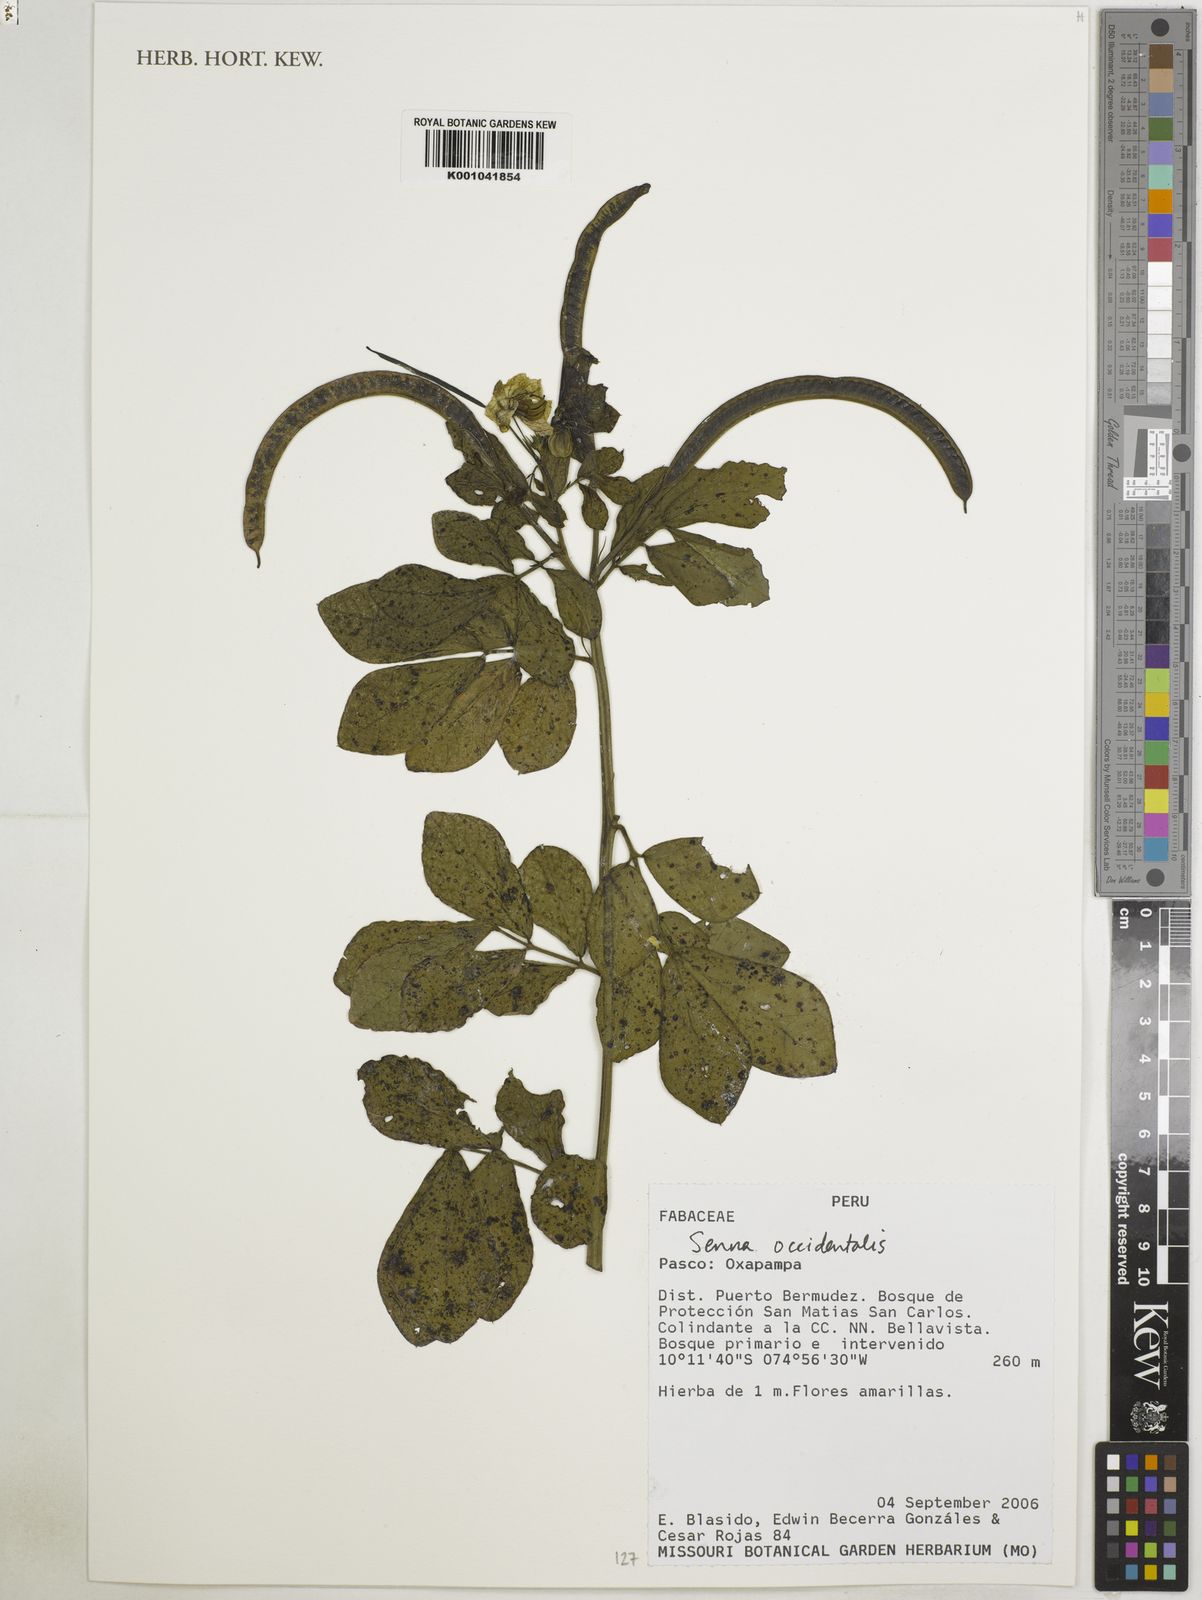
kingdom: Plantae
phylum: Tracheophyta
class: Magnoliopsida
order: Fabales
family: Fabaceae
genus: Senna
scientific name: Senna occidentalis
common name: Septicweed
